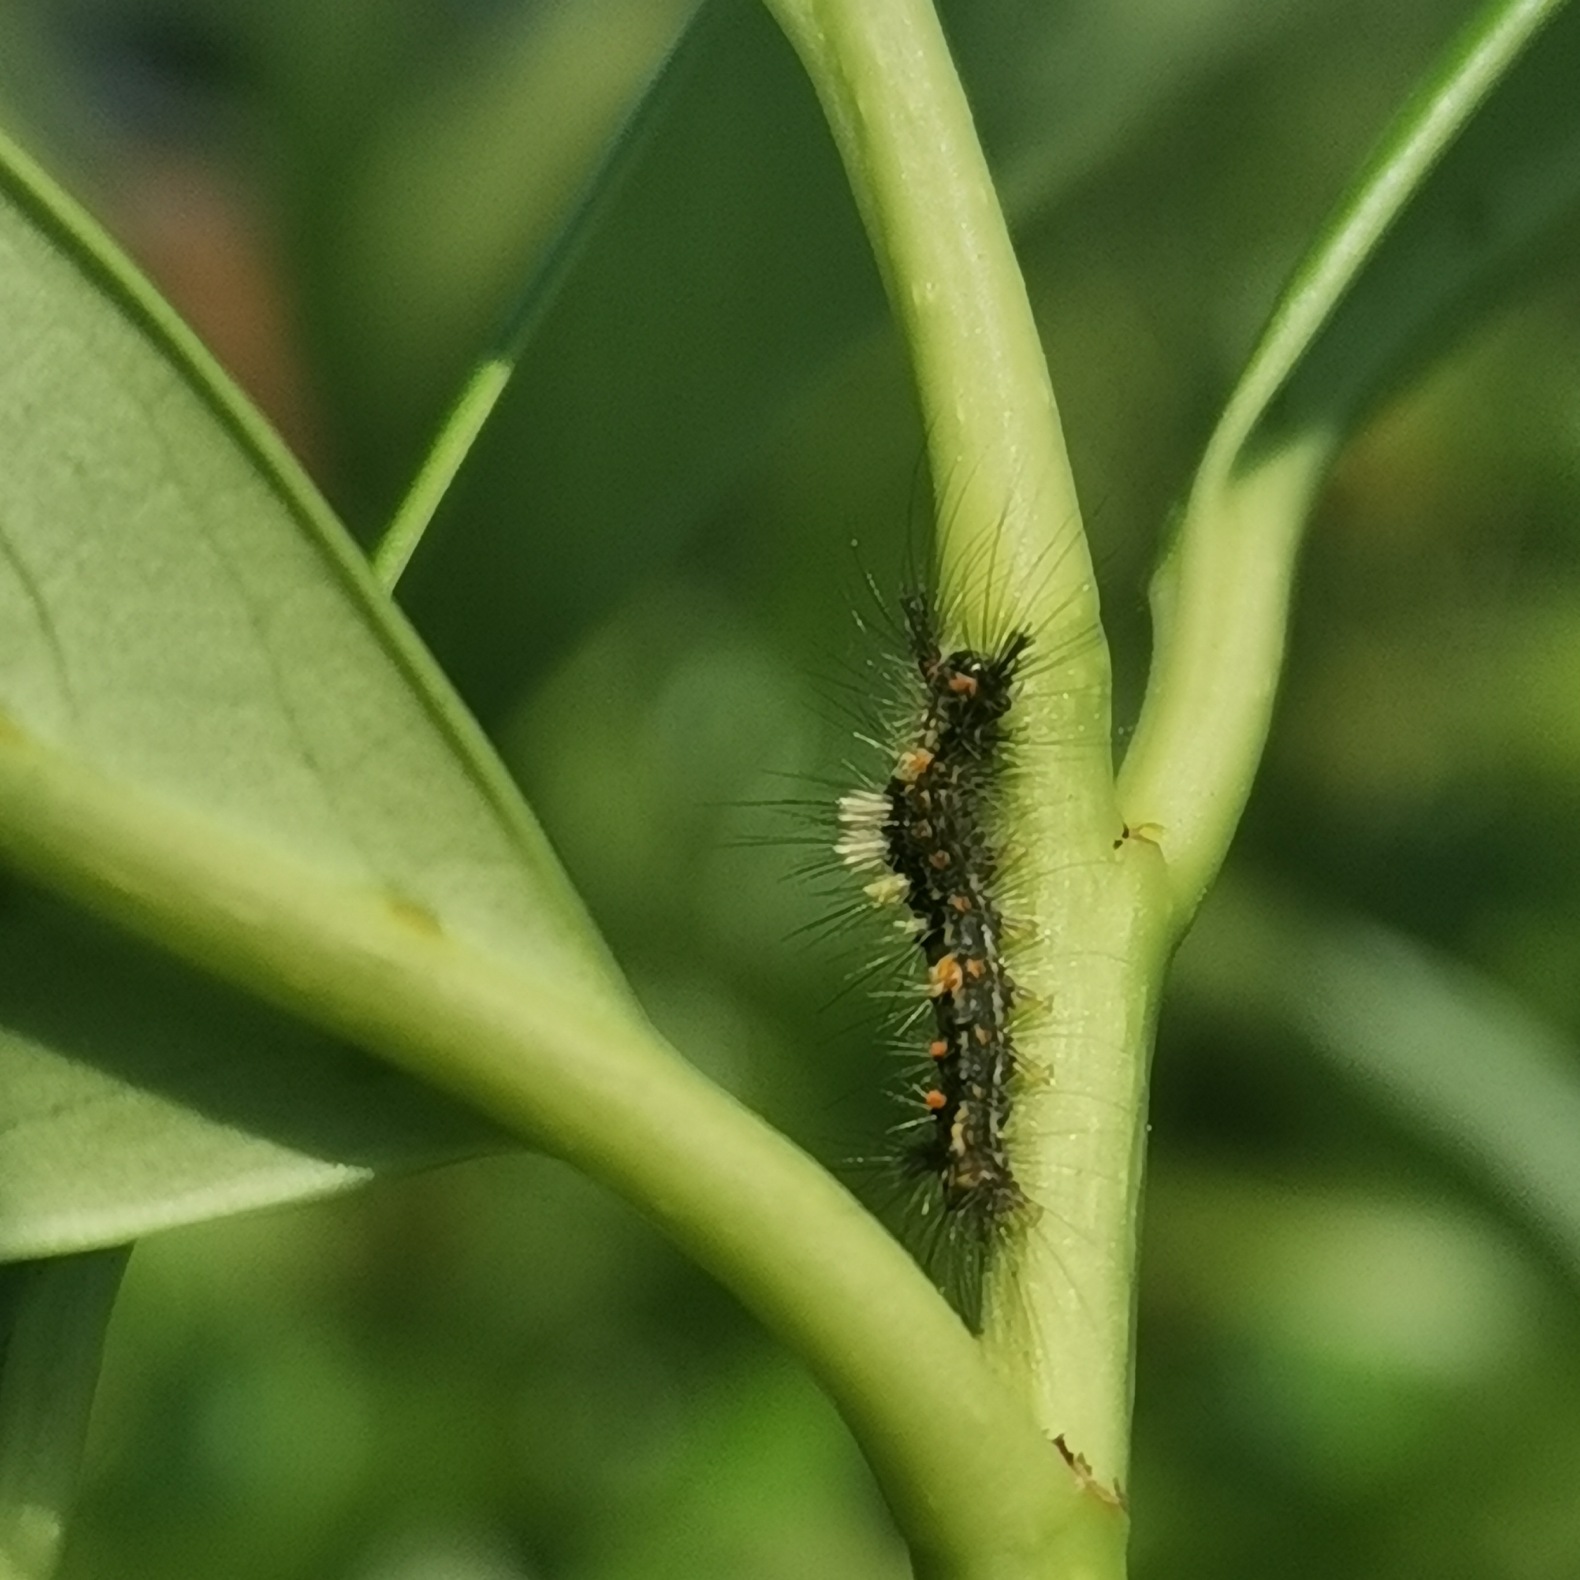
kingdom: Animalia
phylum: Arthropoda
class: Insecta
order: Lepidoptera
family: Erebidae
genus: Orgyia
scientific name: Orgyia antiqua
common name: Lille penselspinder
